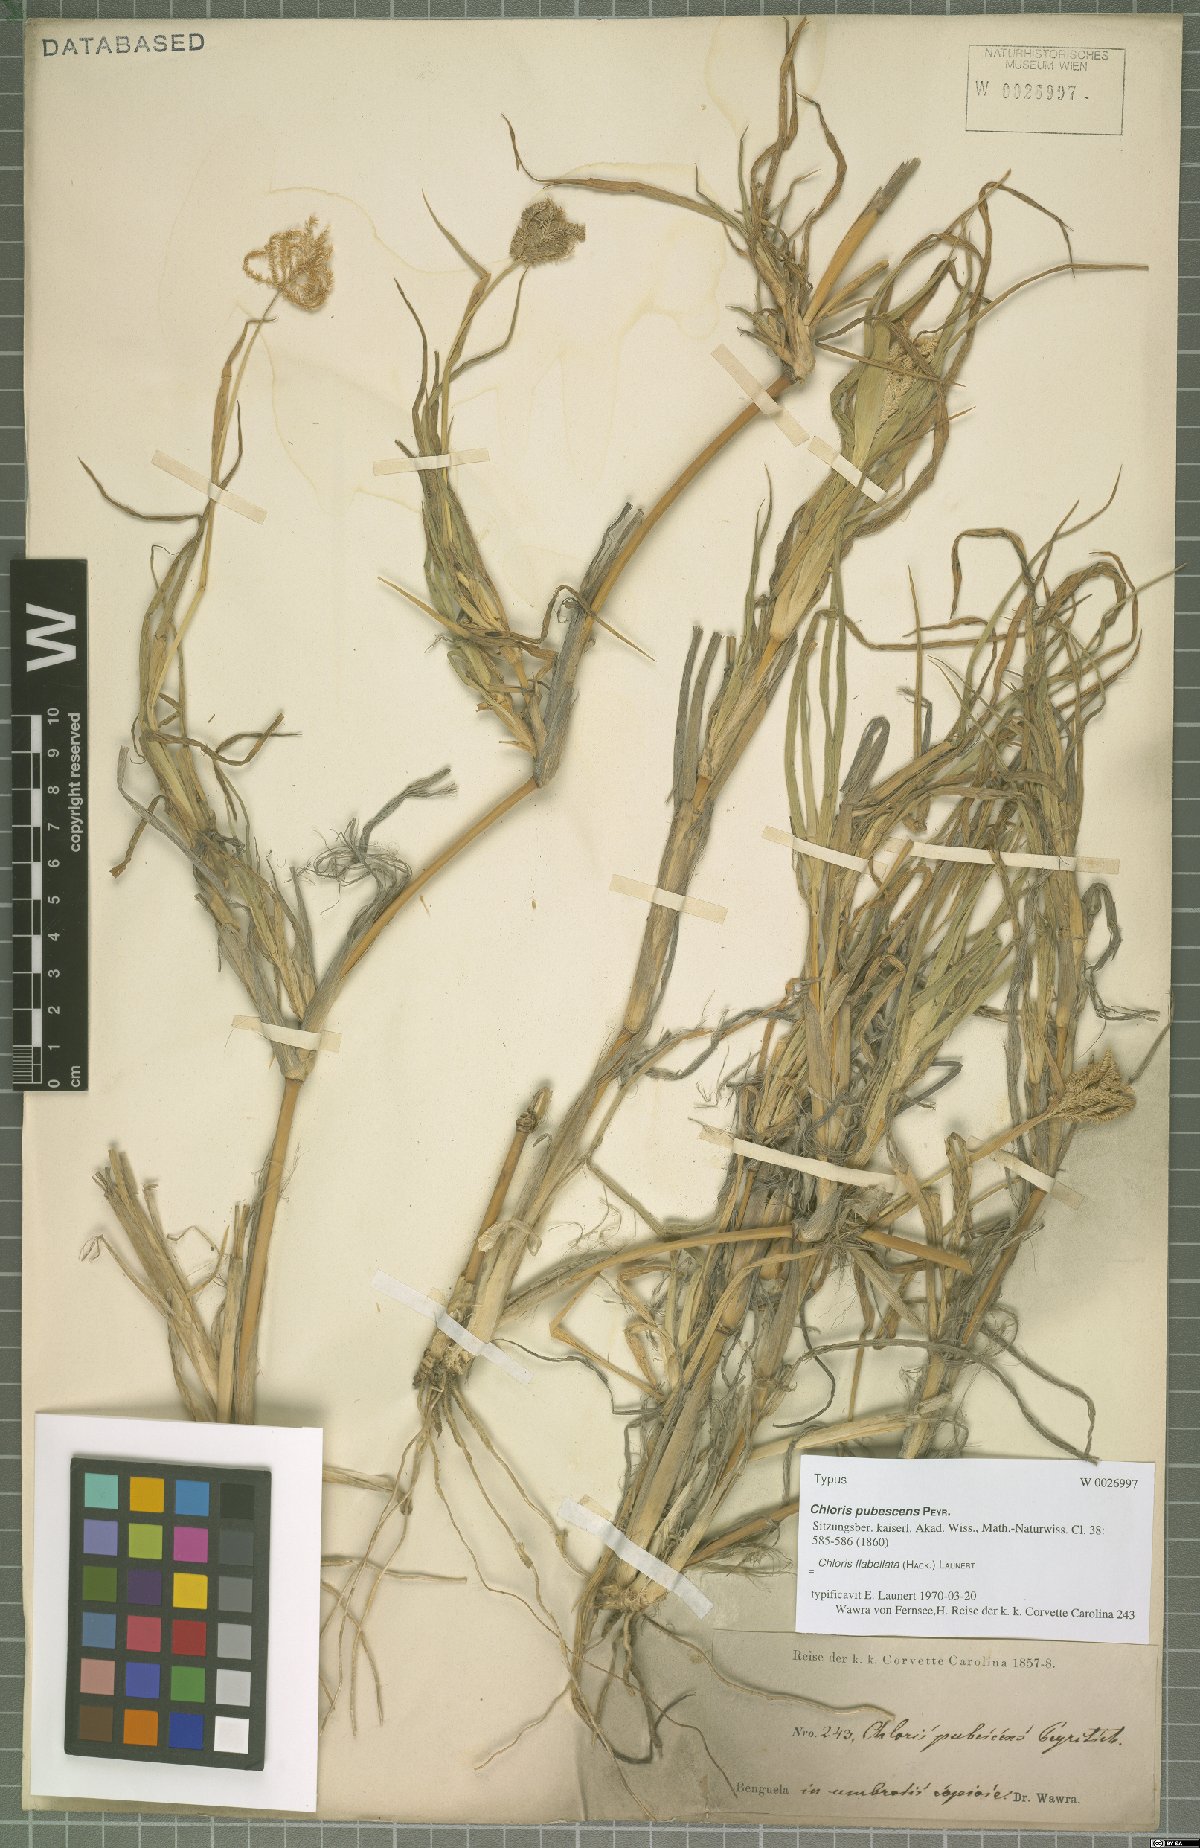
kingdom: Plantae
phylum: Tracheophyta
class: Liliopsida
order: Poales
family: Poaceae
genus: Chloris
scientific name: Chloris flabellata
